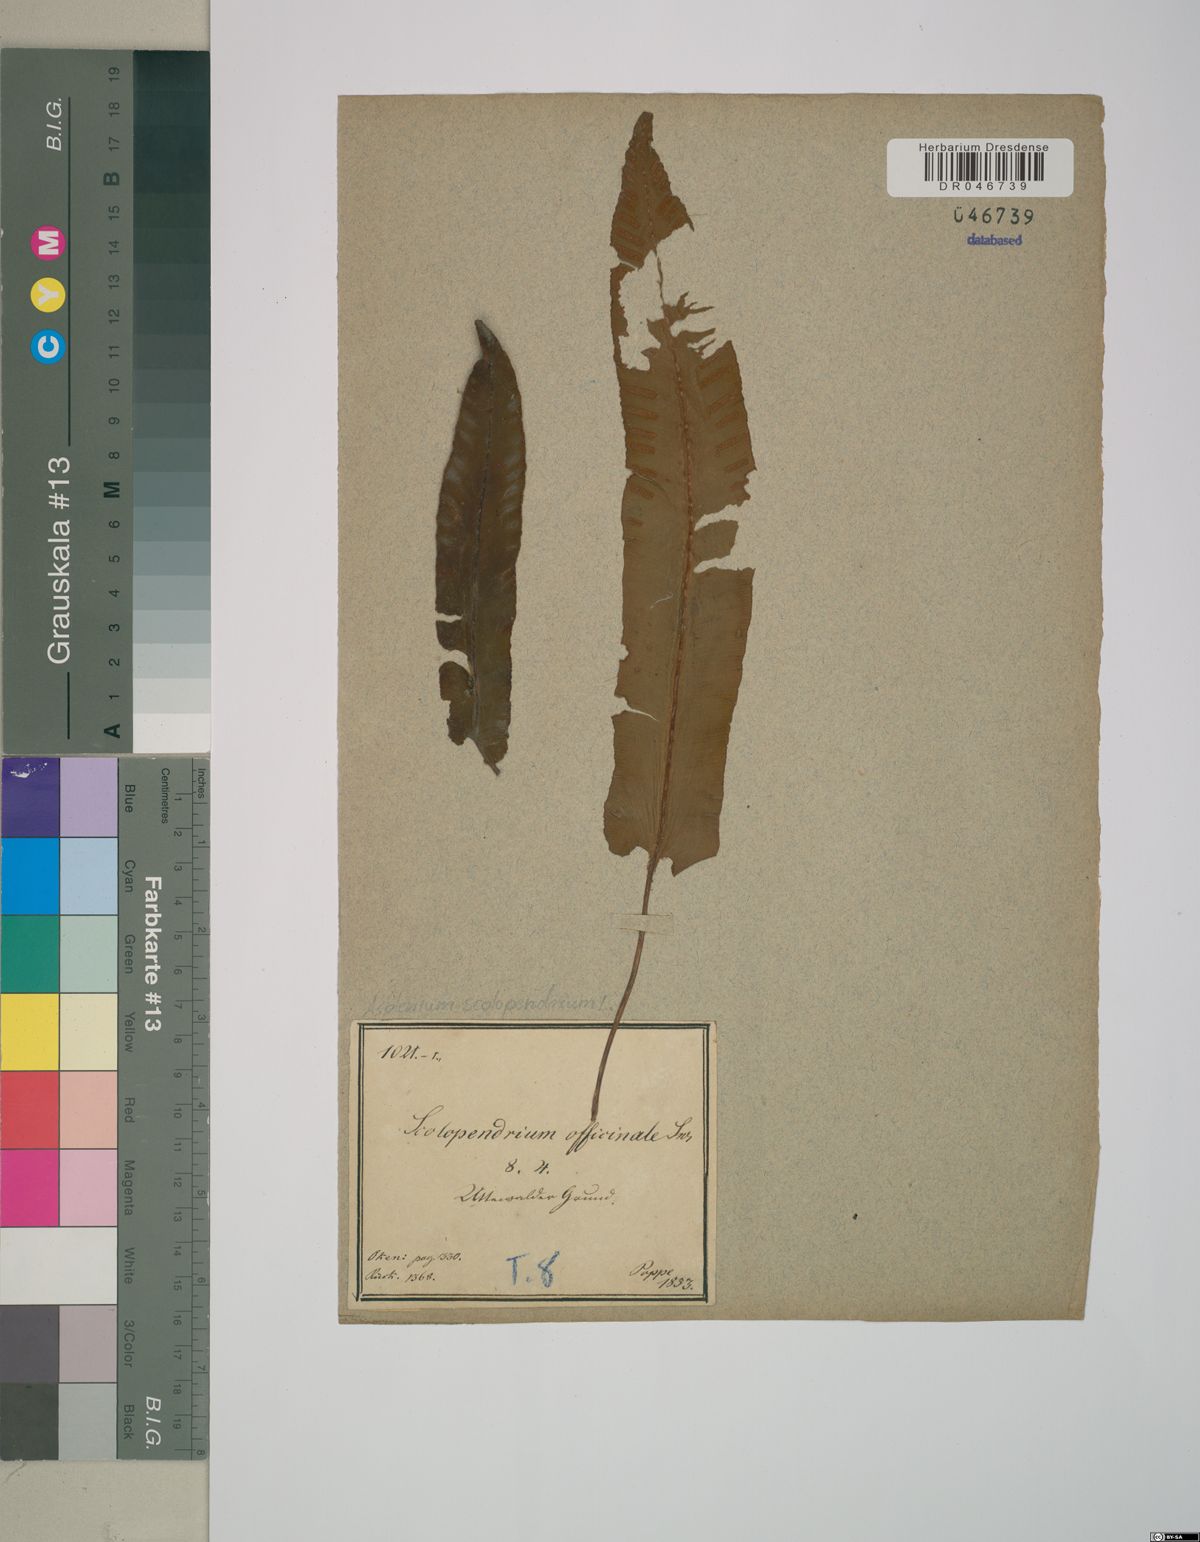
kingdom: Plantae
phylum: Tracheophyta
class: Polypodiopsida
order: Polypodiales
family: Aspleniaceae
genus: Asplenium
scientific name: Asplenium scolopendrium
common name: Hart's-tongue fern
